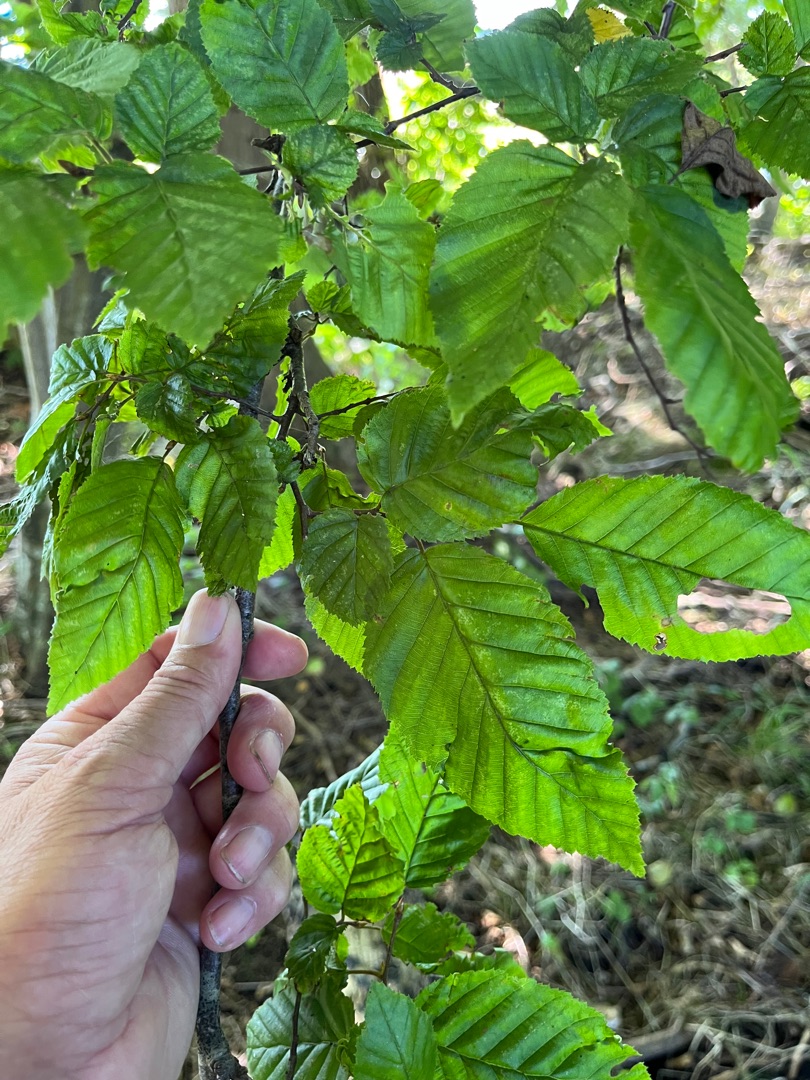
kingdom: Plantae
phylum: Tracheophyta
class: Magnoliopsida
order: Fagales
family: Betulaceae
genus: Carpinus
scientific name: Carpinus betulus
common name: Avnbøg
